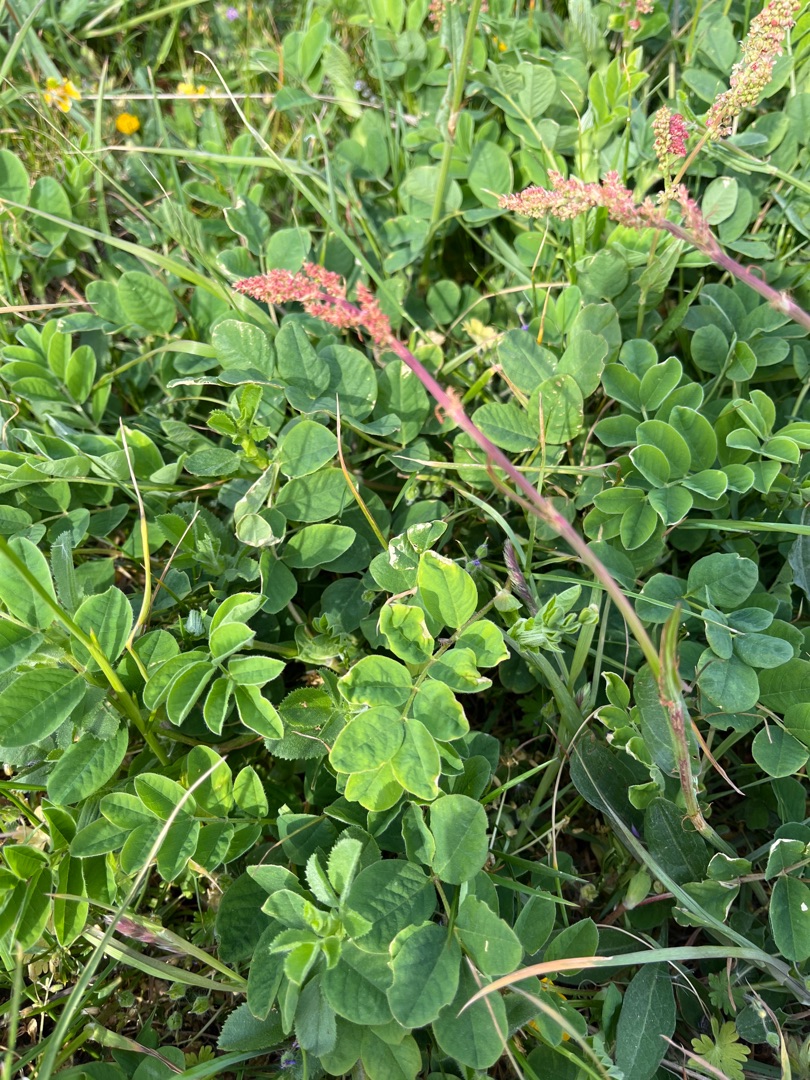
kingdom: Plantae
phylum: Tracheophyta
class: Magnoliopsida
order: Fabales
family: Fabaceae
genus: Astragalus
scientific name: Astragalus glycyphyllos
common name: Sød astragel
